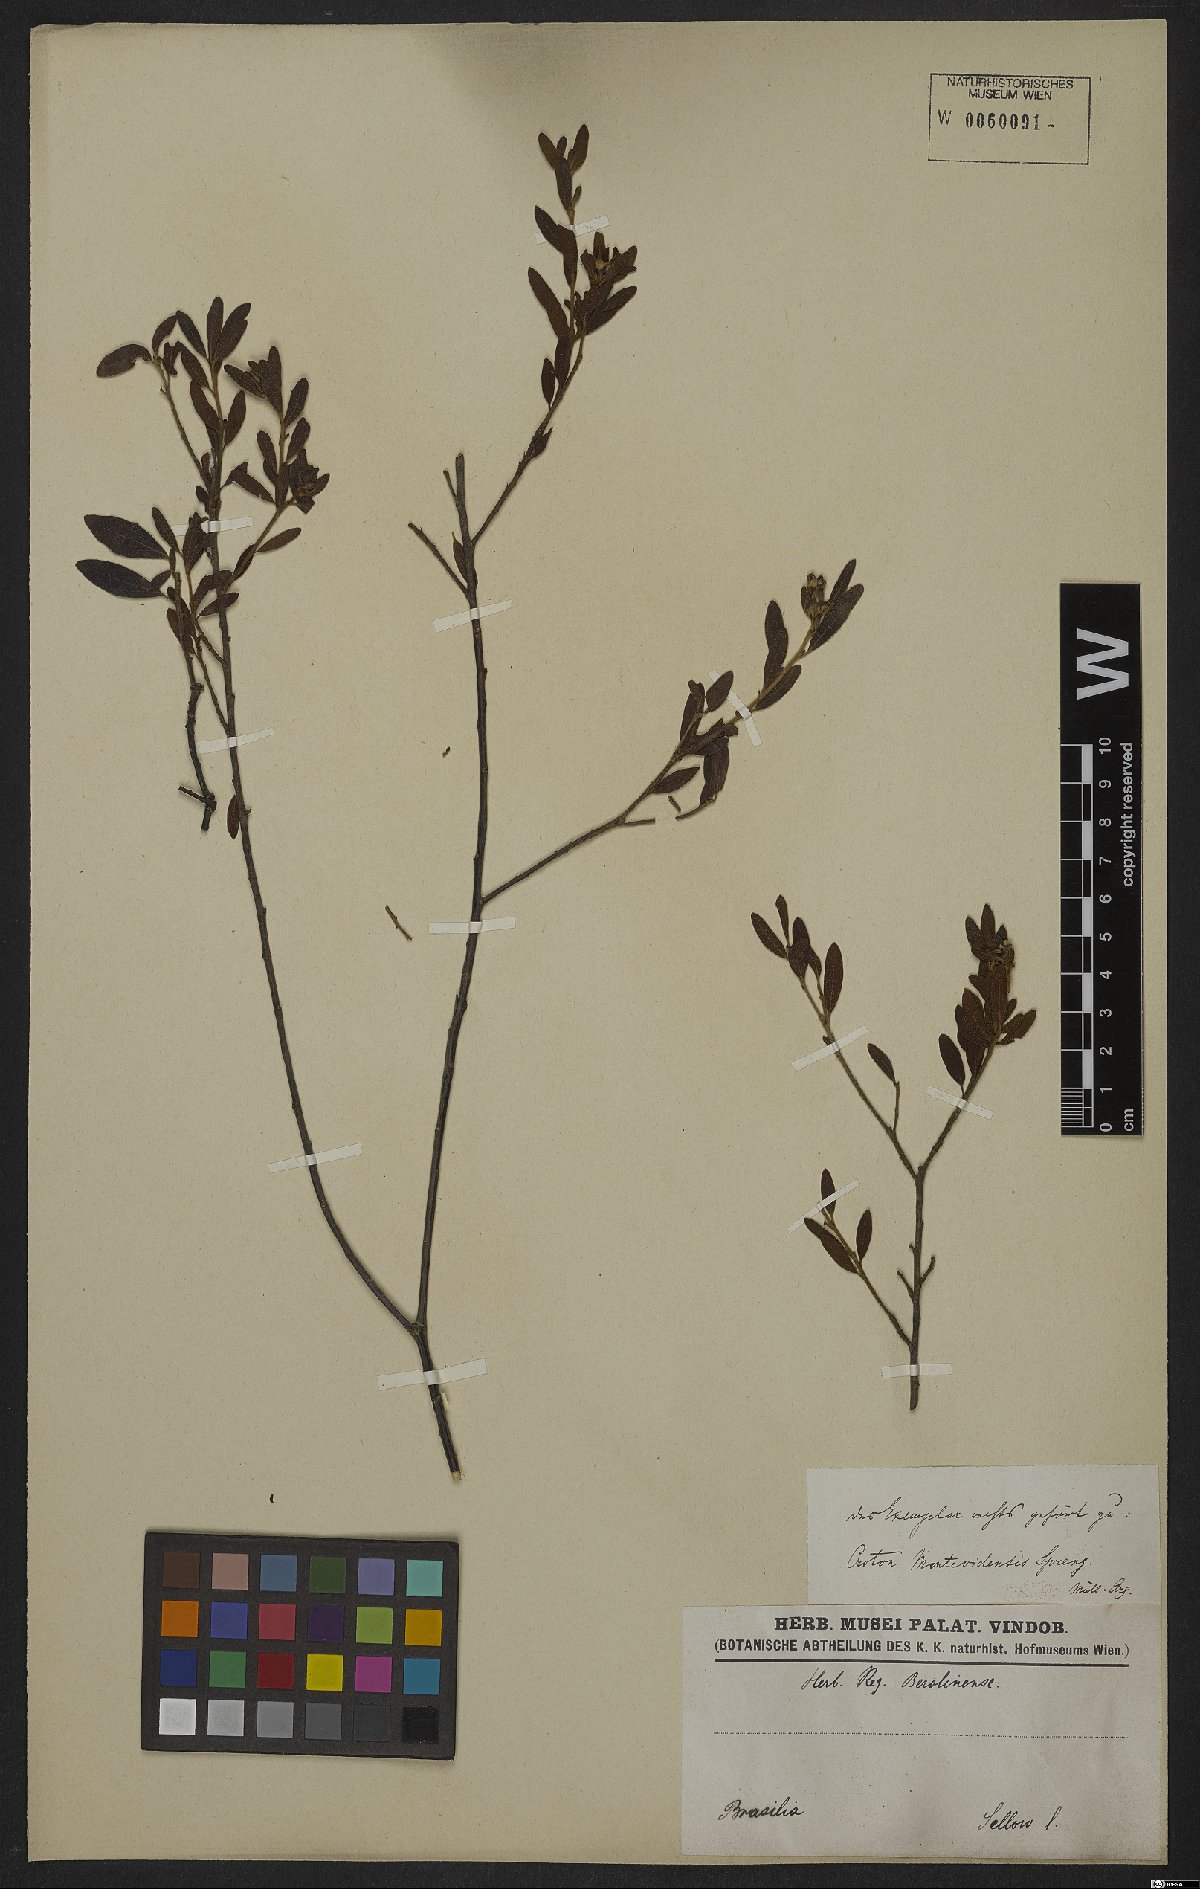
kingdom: Plantae
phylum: Tracheophyta
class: Magnoliopsida
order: Malpighiales
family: Euphorbiaceae
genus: Croton
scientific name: Croton montevidensis
